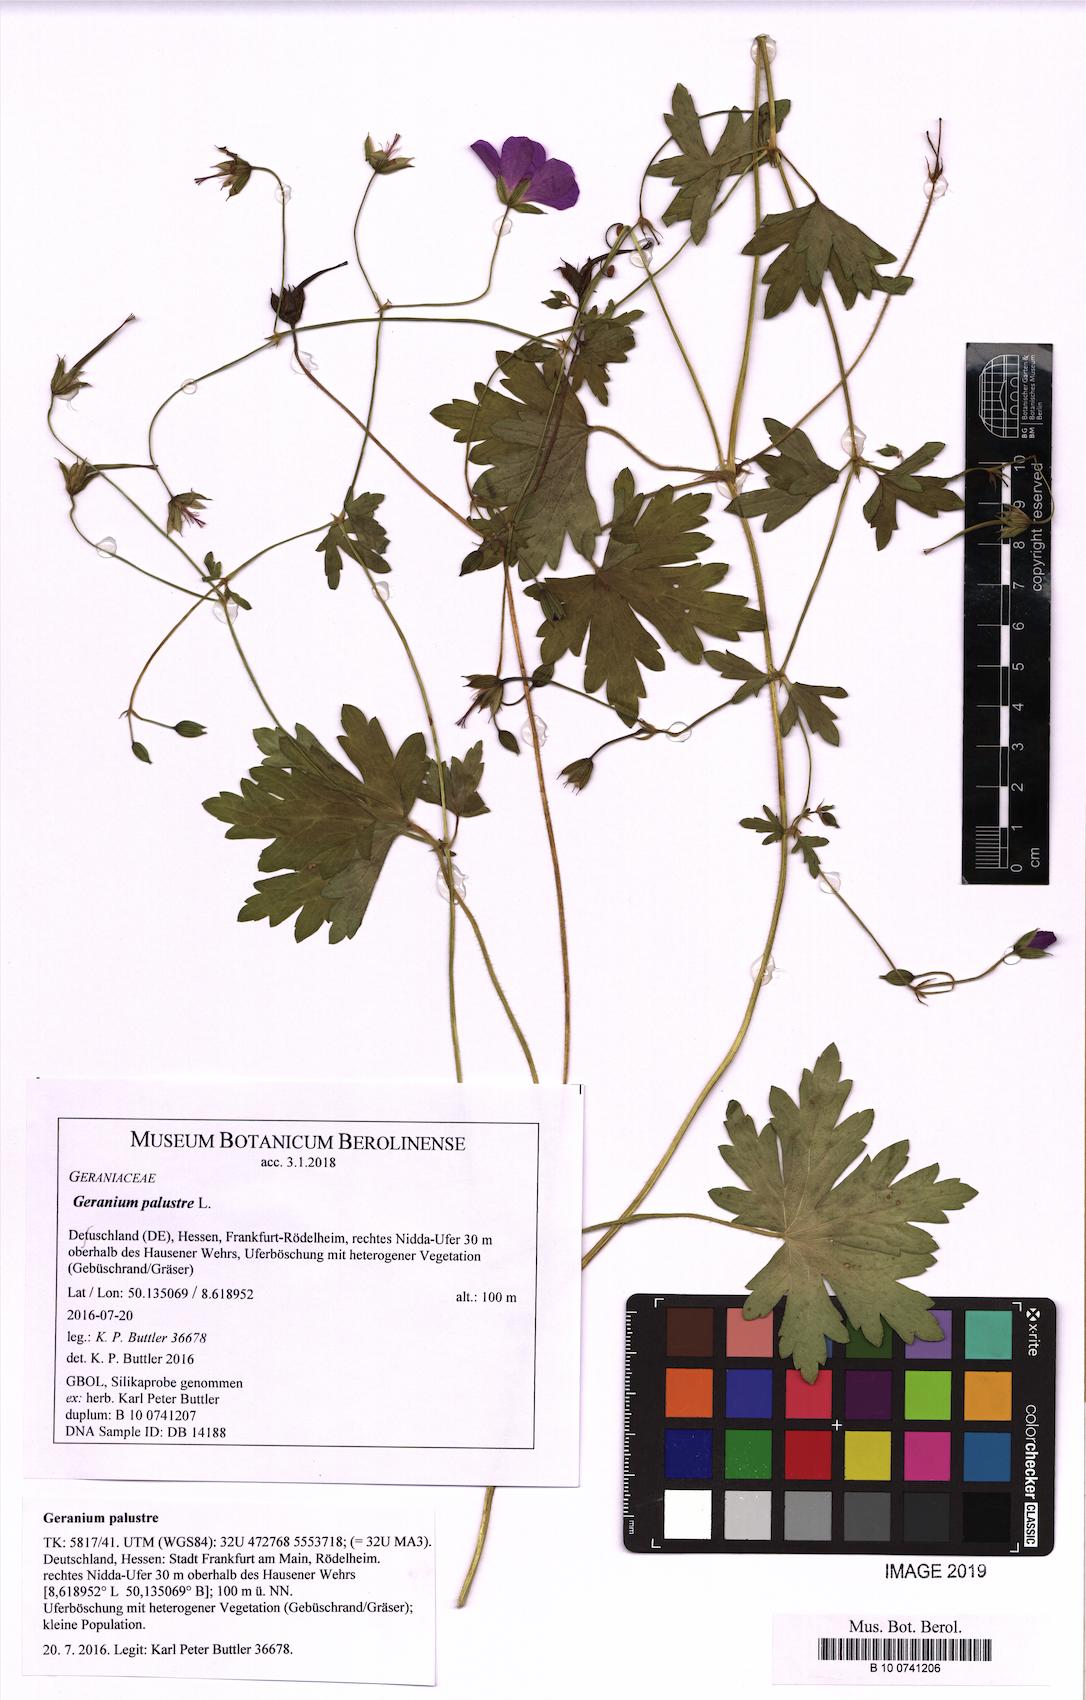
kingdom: Plantae
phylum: Tracheophyta
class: Magnoliopsida
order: Geraniales
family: Geraniaceae
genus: Geranium
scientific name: Geranium palustre
